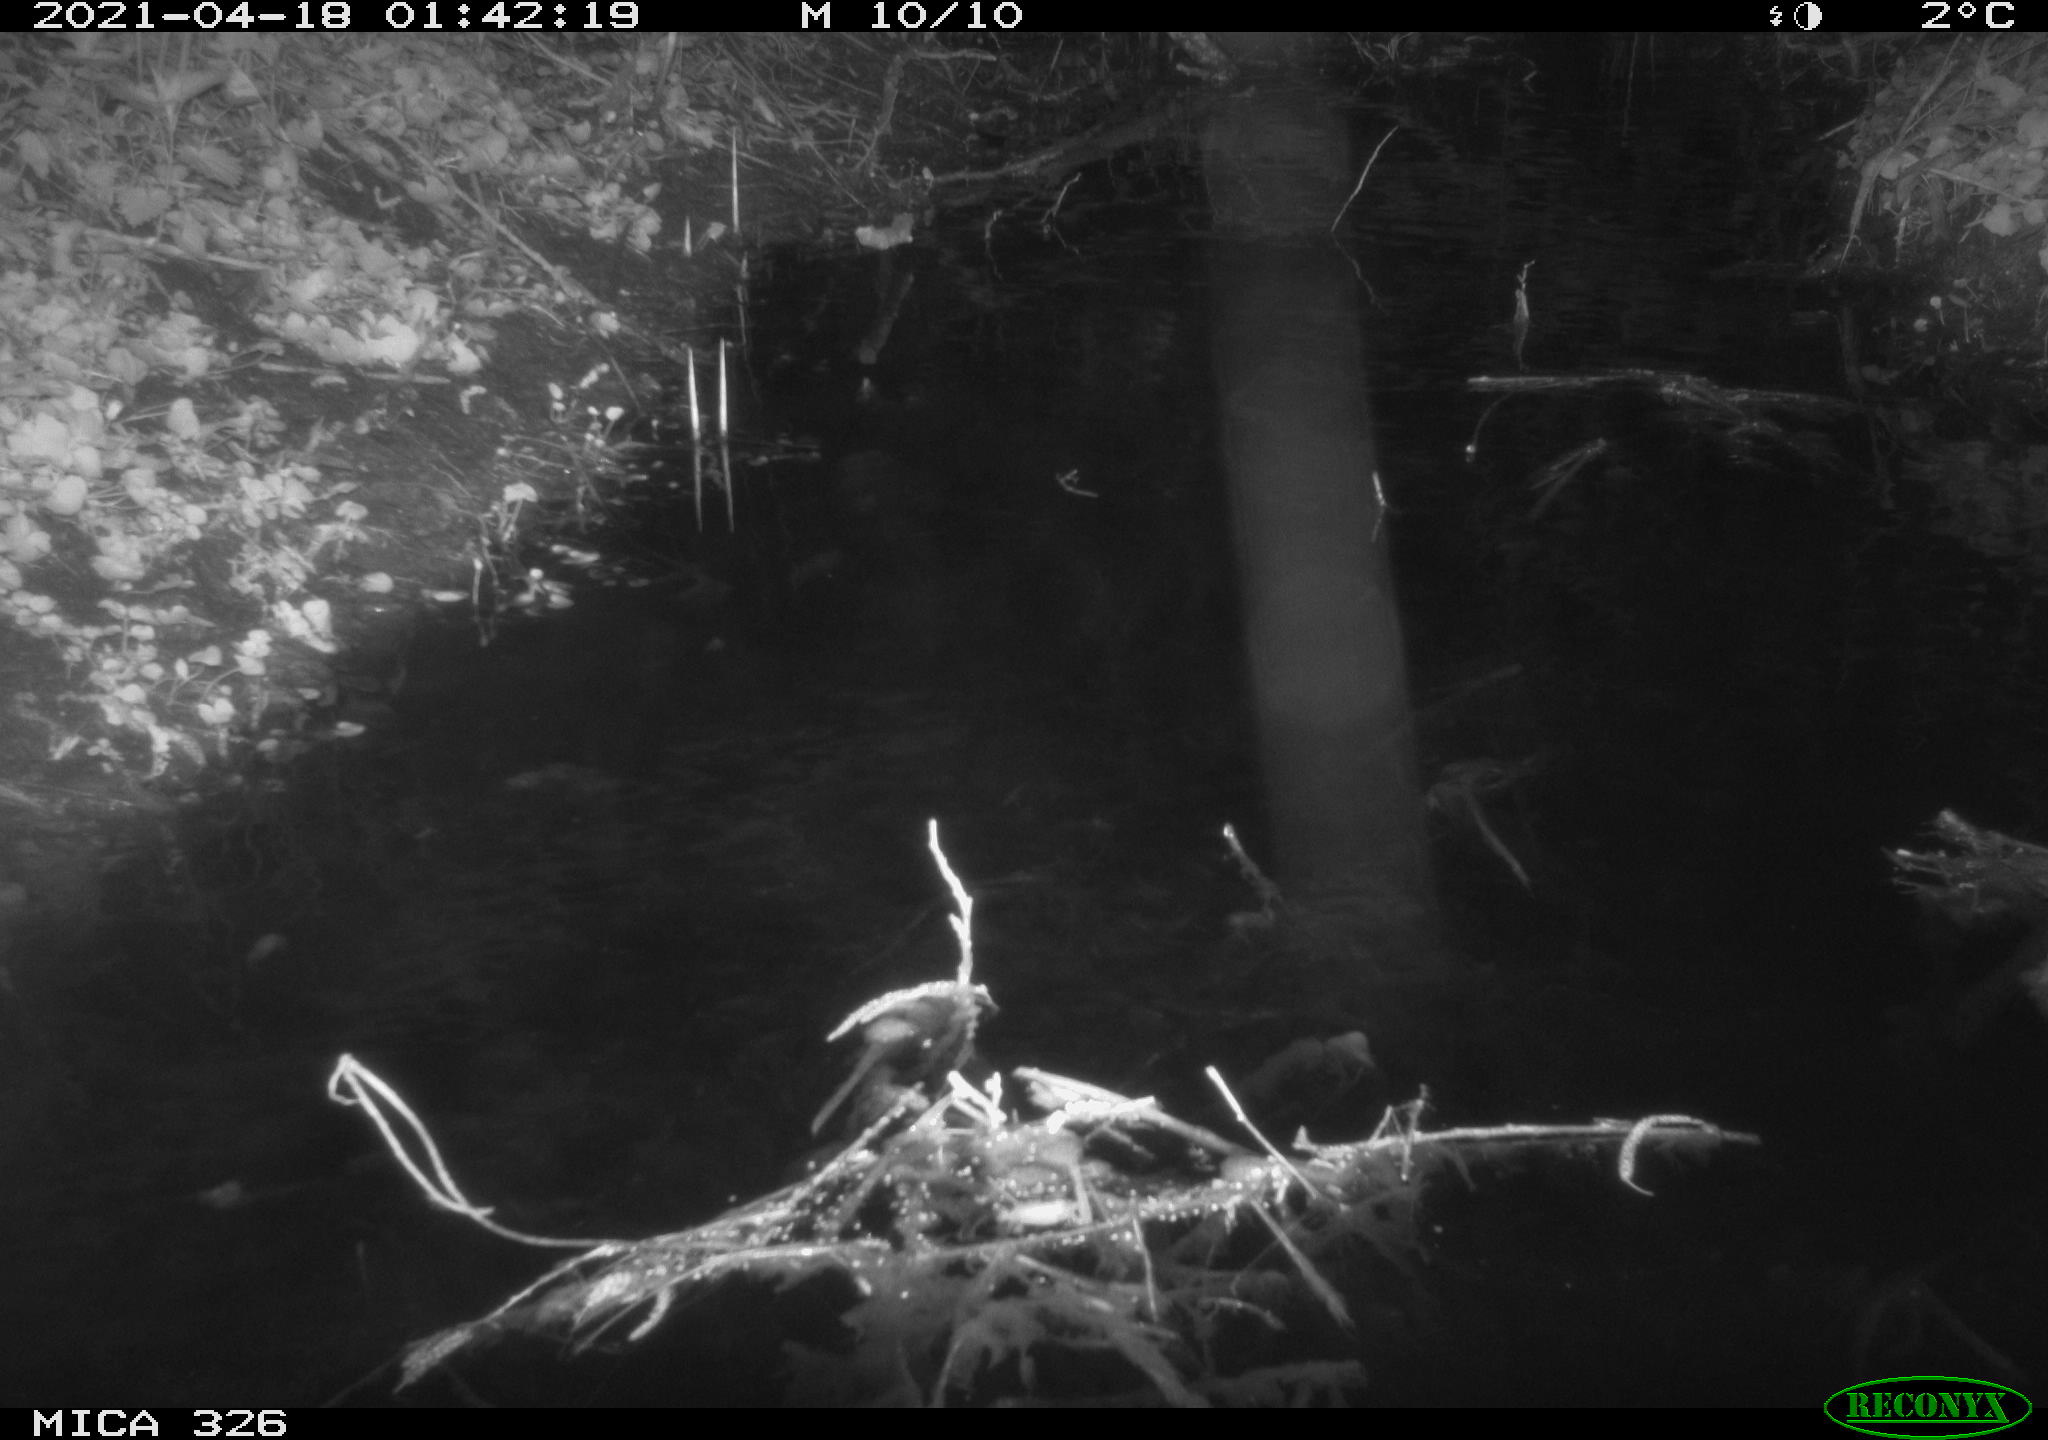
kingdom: Animalia
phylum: Chordata
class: Mammalia
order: Rodentia
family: Cricetidae
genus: Ondatra
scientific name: Ondatra zibethicus
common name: Muskrat
